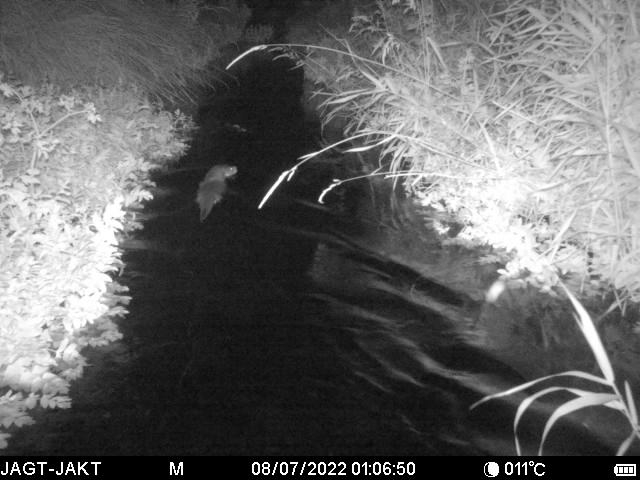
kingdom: Animalia
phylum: Chordata
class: Mammalia
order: Carnivora
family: Mustelidae
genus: Lutra
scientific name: Lutra lutra
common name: Odder
